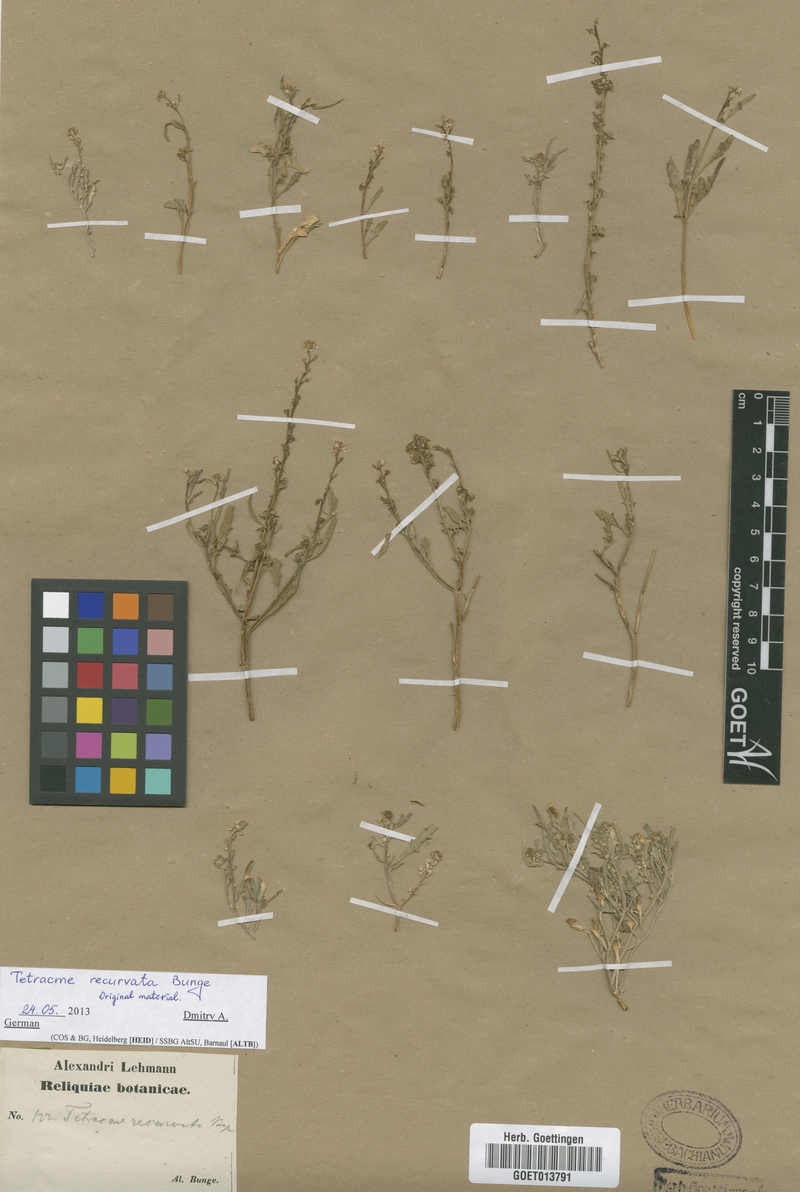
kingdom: Plantae
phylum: Tracheophyta
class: Magnoliopsida
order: Brassicales
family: Brassicaceae
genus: Tetracme
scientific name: Tetracme contorta
